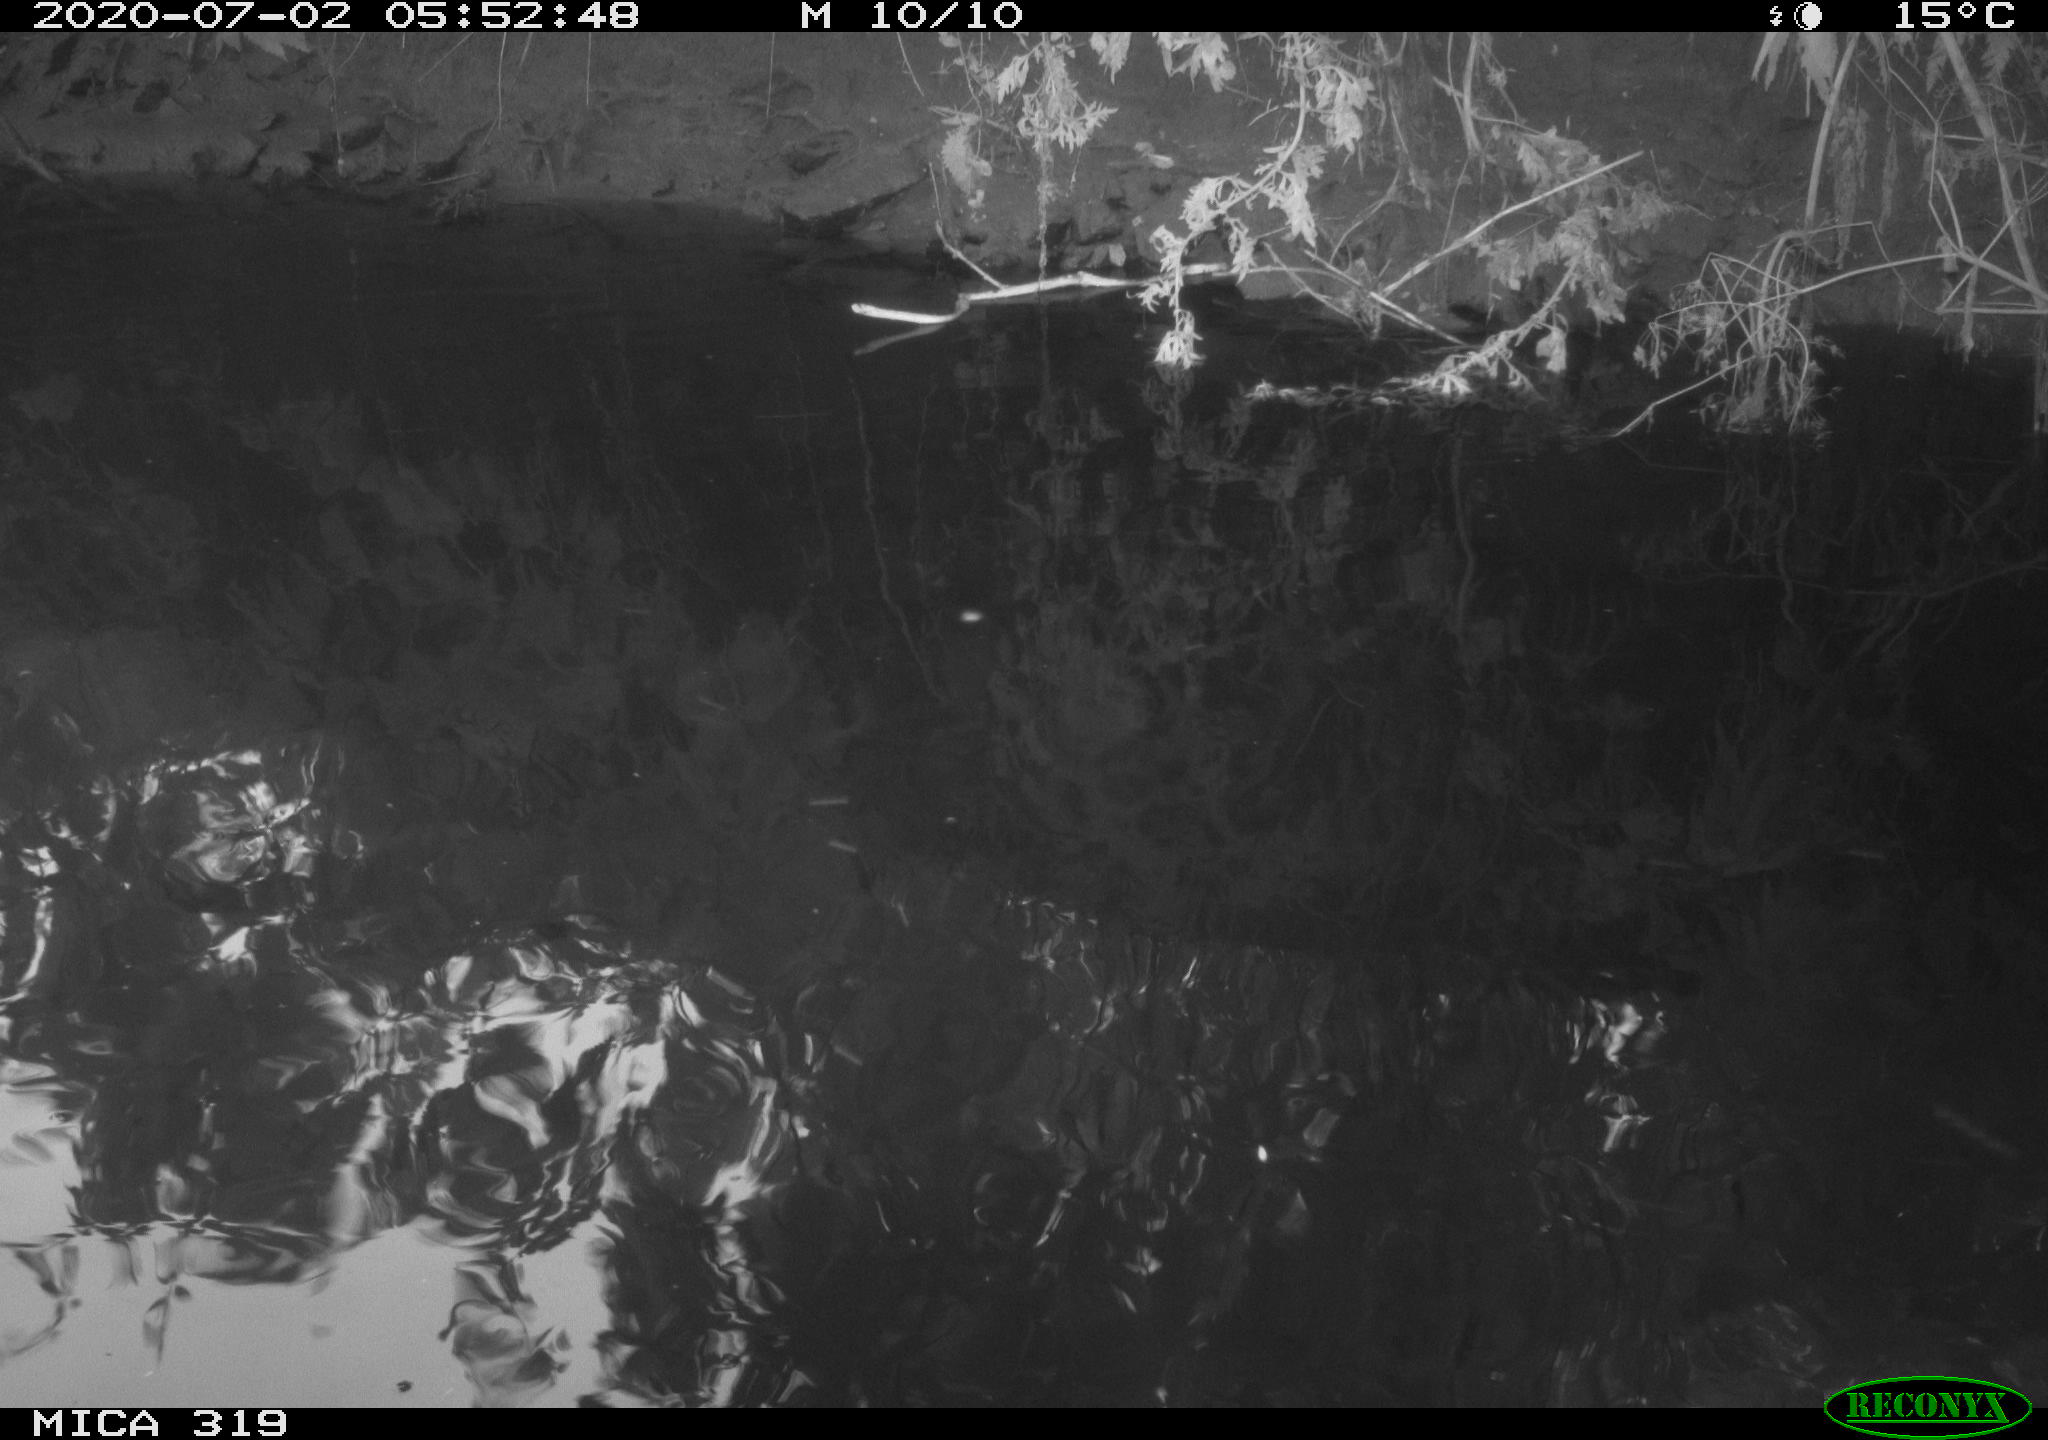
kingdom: Animalia
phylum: Chordata
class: Aves
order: Anseriformes
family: Anatidae
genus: Anas
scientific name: Anas platyrhynchos
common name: Mallard
